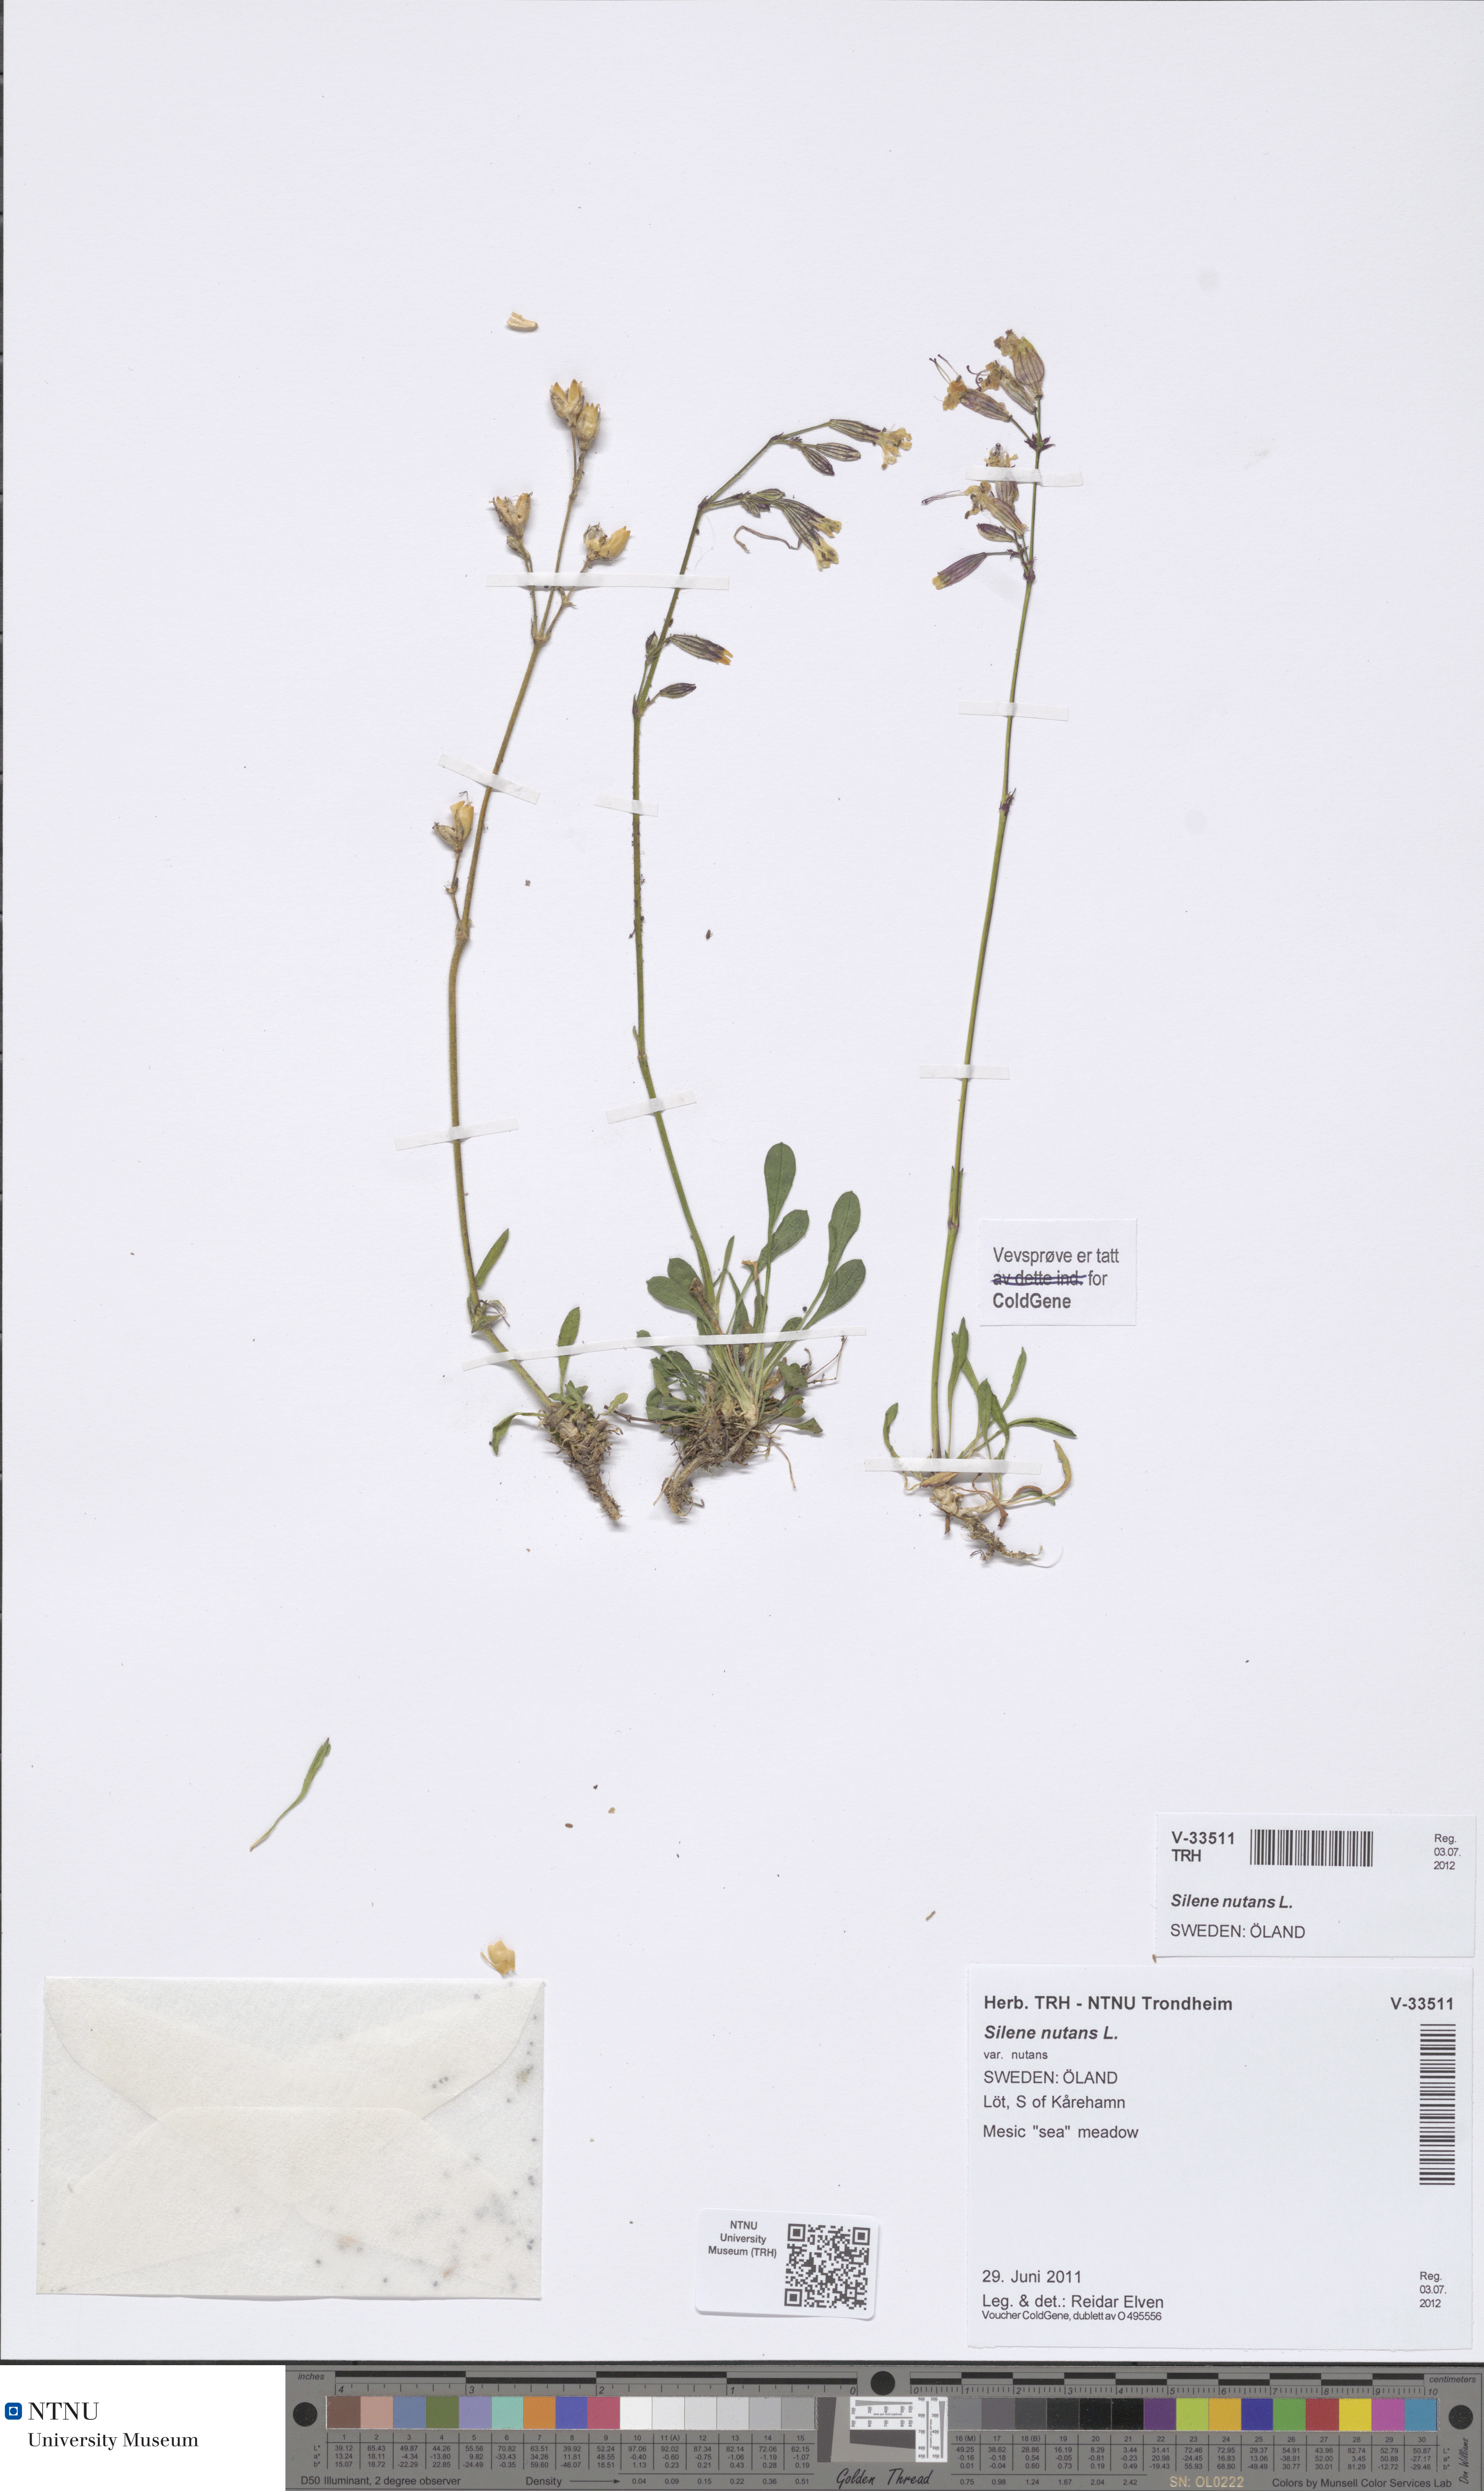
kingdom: Plantae
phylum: Tracheophyta
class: Magnoliopsida
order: Caryophyllales
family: Caryophyllaceae
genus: Silene
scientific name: Silene nutans
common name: Nottingham catchfly
